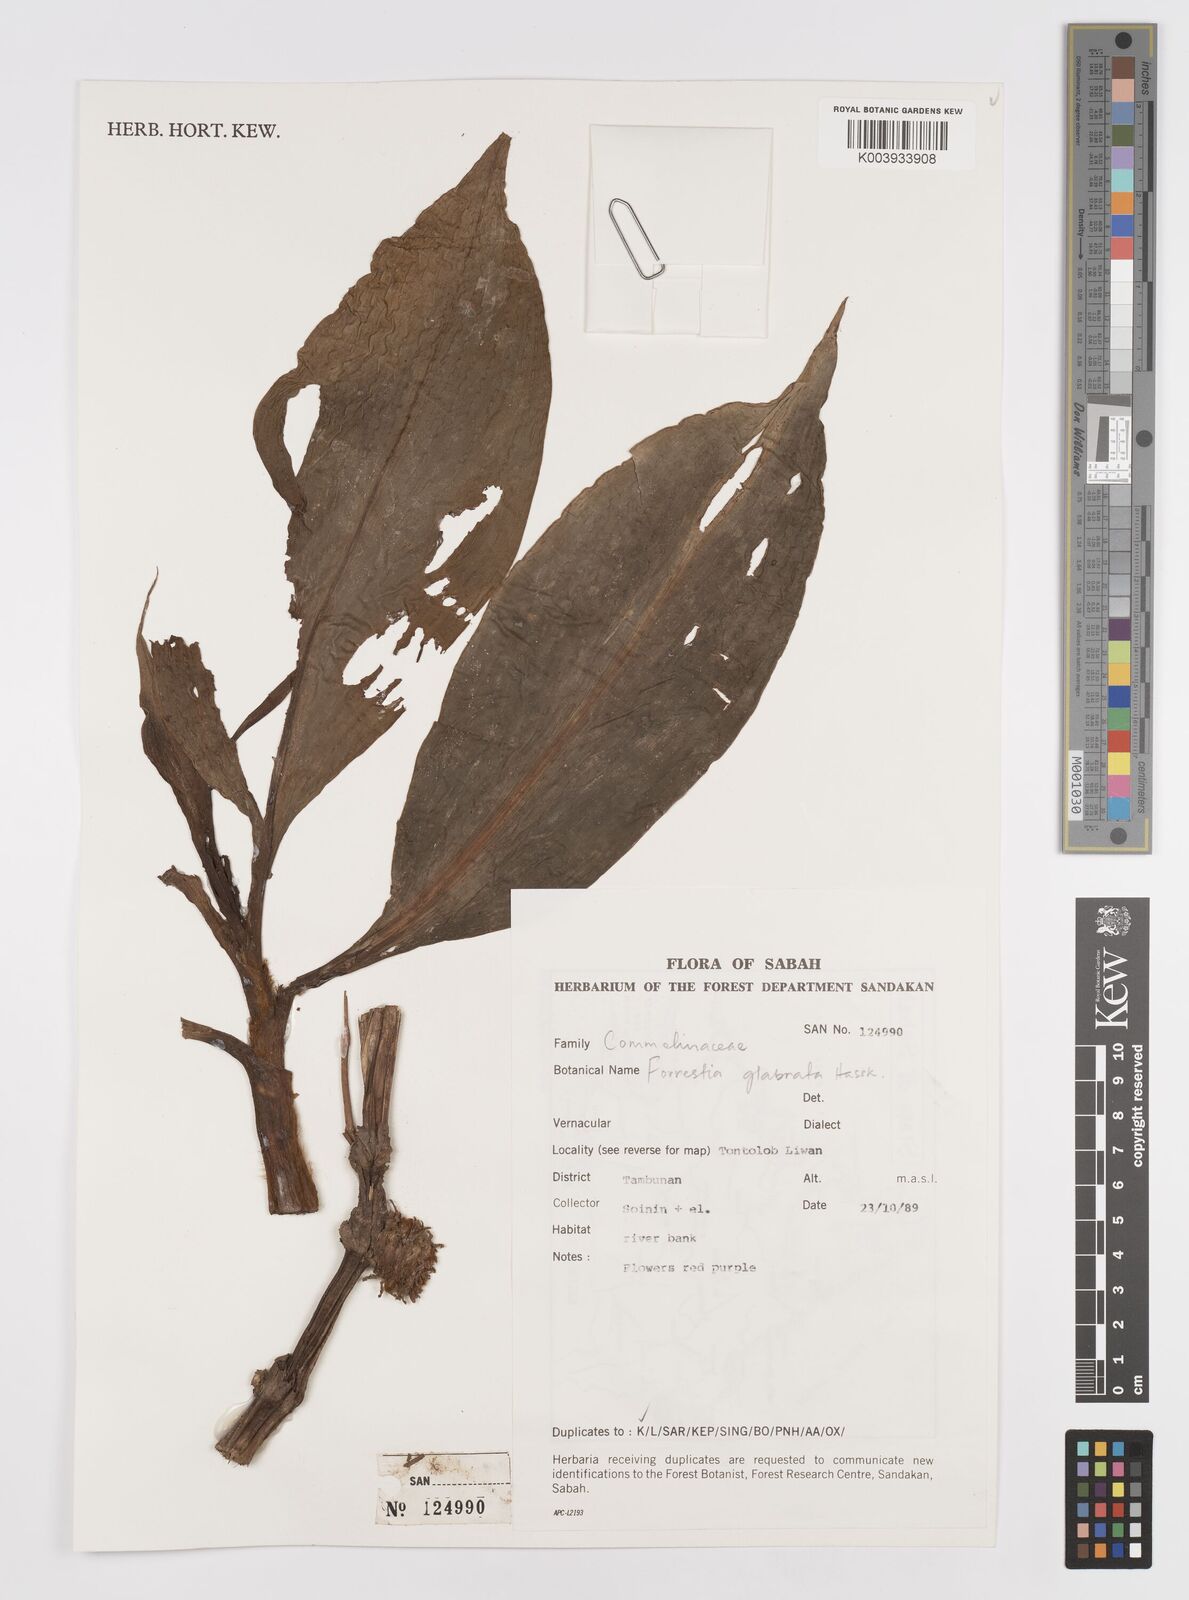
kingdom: Plantae
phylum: Tracheophyta
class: Liliopsida
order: Commelinales
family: Commelinaceae
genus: Amischotolype
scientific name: Amischotolype glabrata
